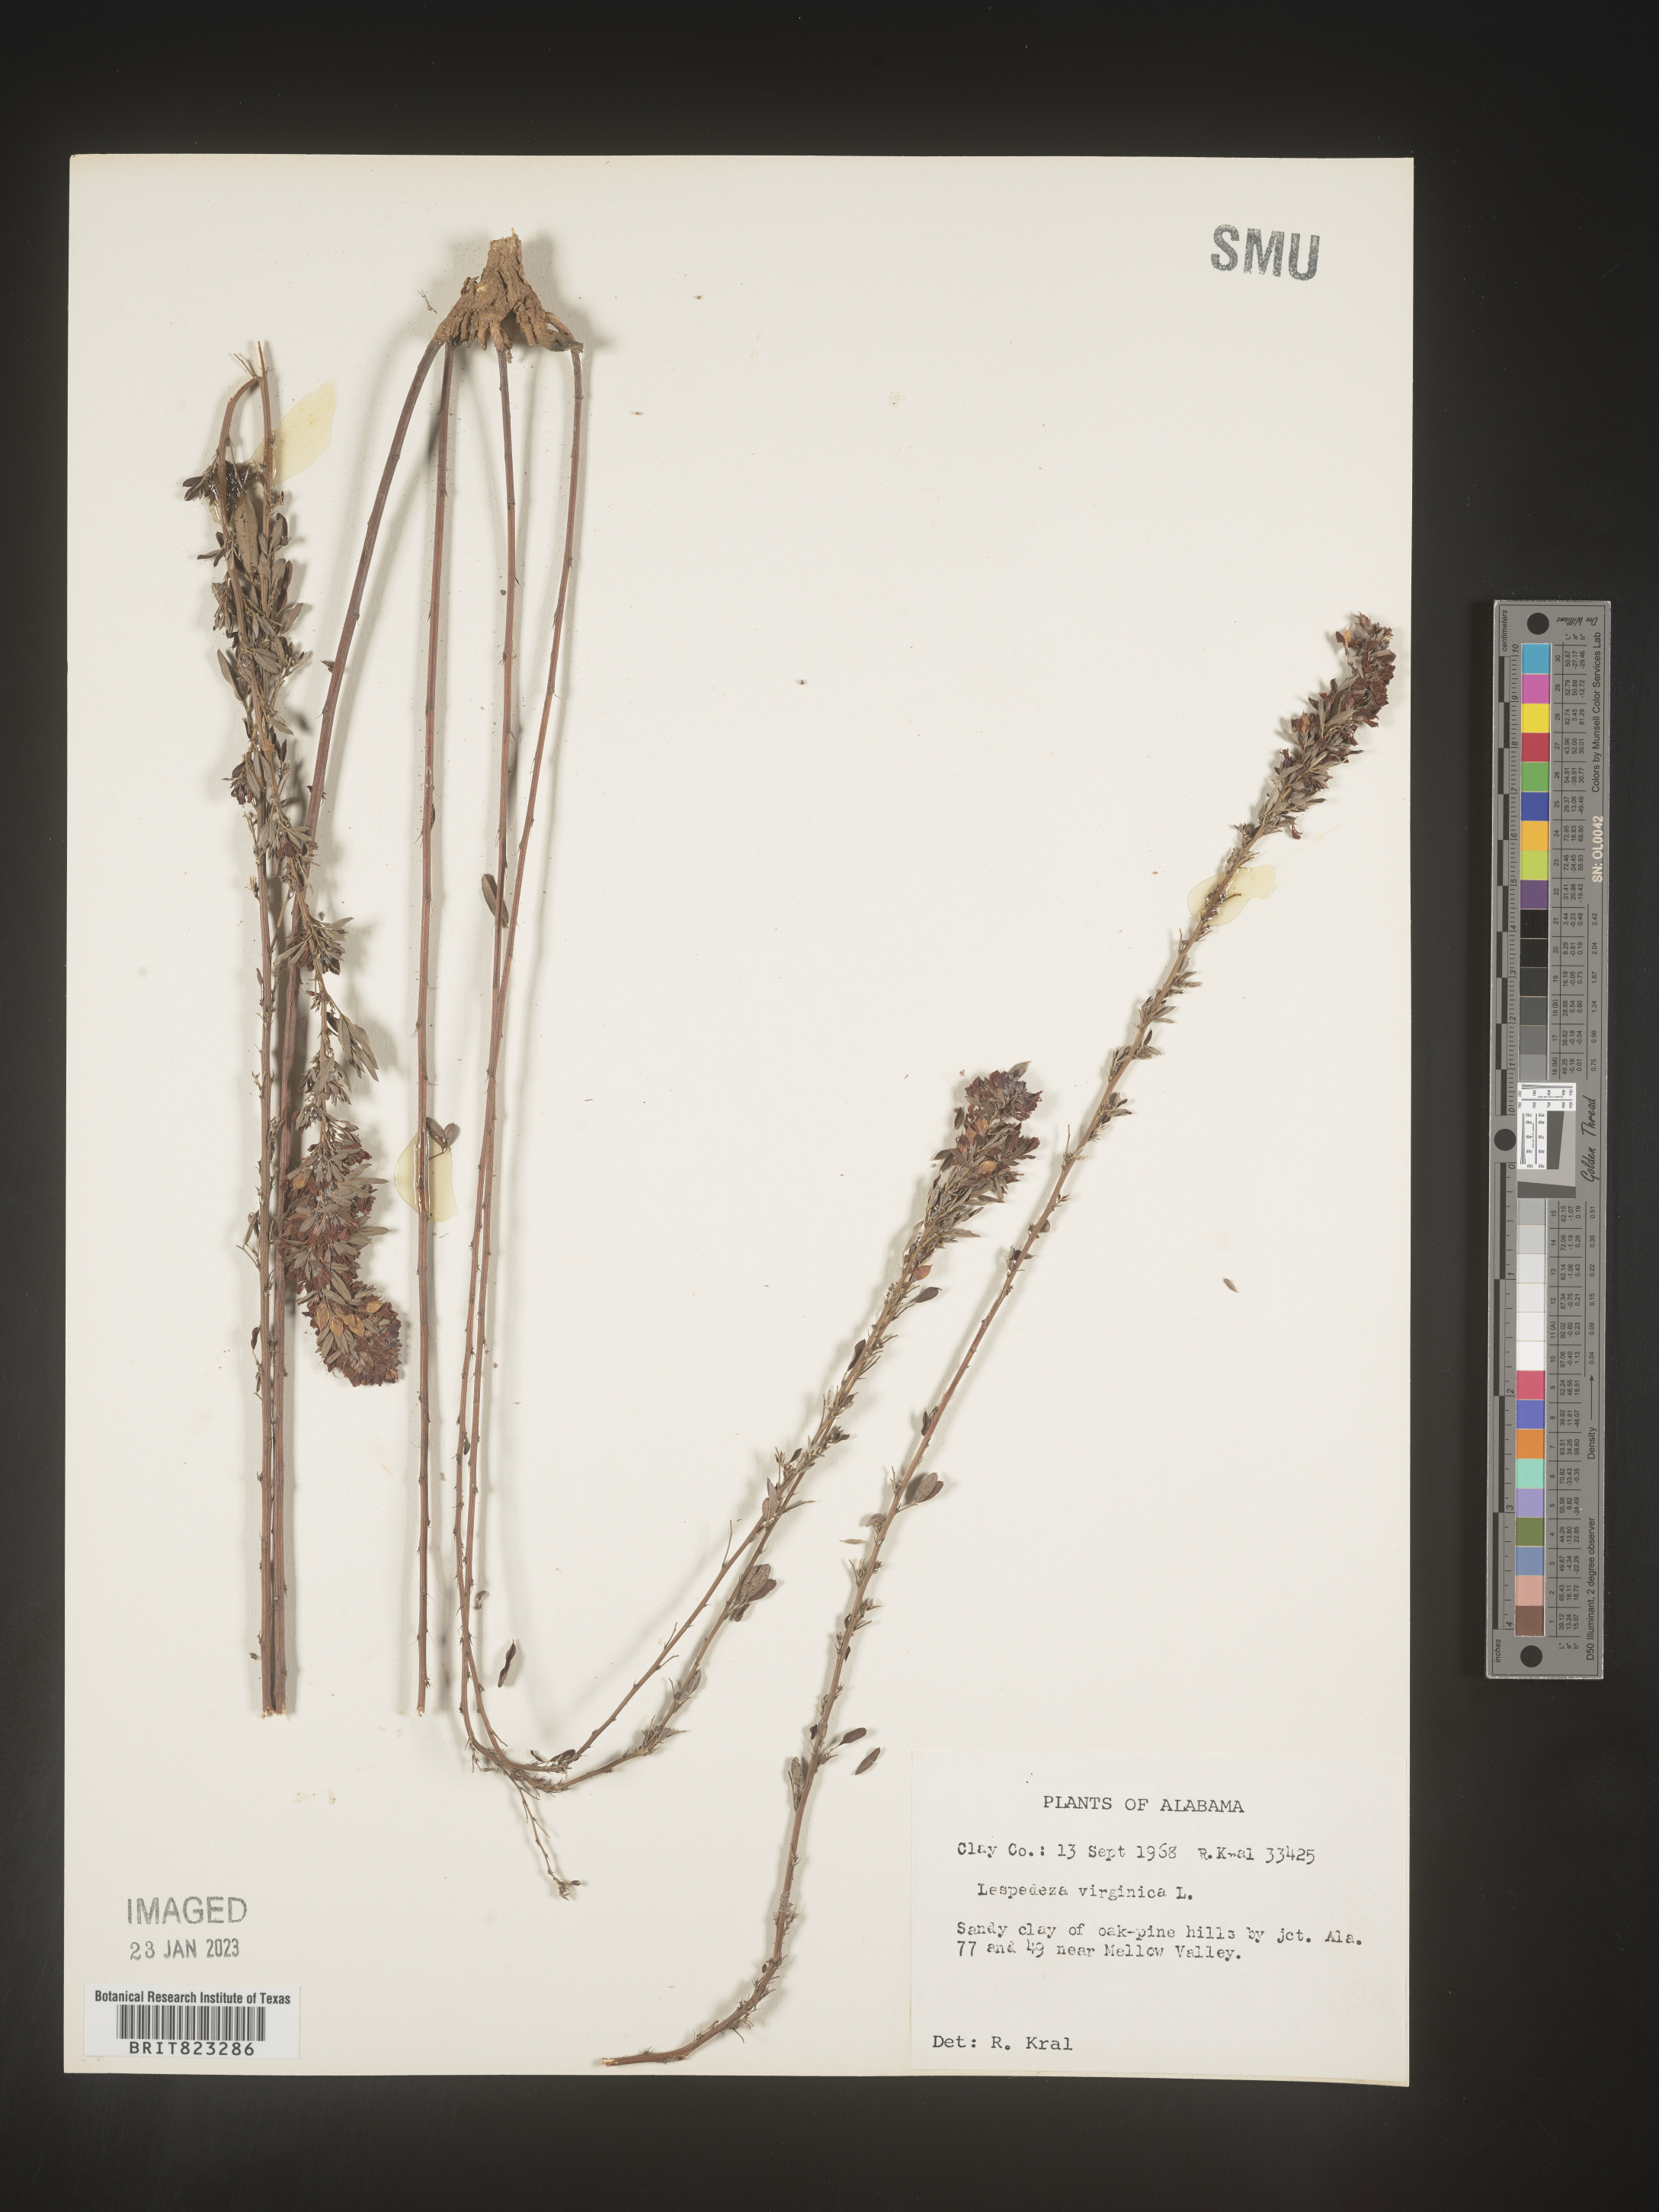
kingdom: Plantae
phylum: Tracheophyta
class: Magnoliopsida
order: Fabales
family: Fabaceae
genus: Lespedeza
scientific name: Lespedeza virginica
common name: Slender bush-clover
